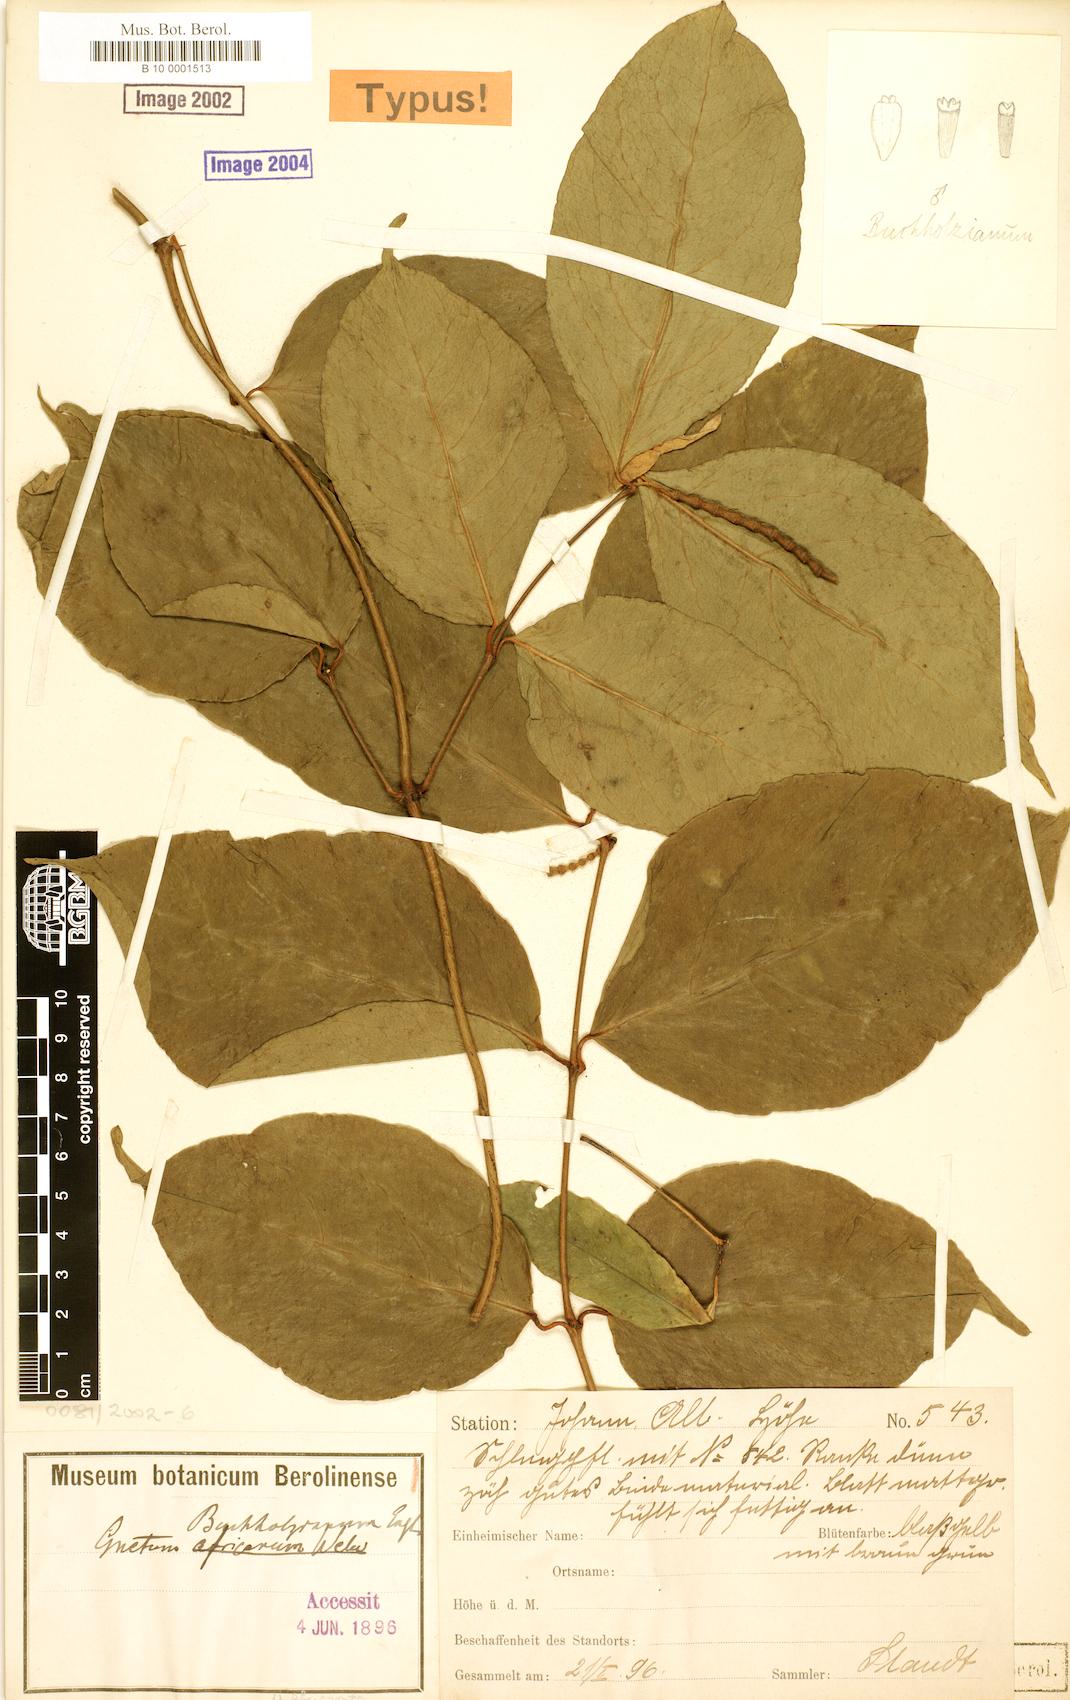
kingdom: Plantae
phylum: Tracheophyta
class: Gnetopsida
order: Gnetales
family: Gnetaceae
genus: Gnetum
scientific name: Gnetum buchholzianum
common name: Eru
